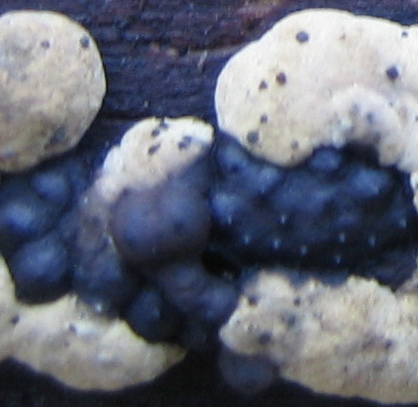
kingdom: Fungi
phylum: Ascomycota
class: Sordariomycetes
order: Xylariales
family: Hypoxylaceae
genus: Jackrogersella
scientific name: Jackrogersella multiformis
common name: foranderlig kulbær
